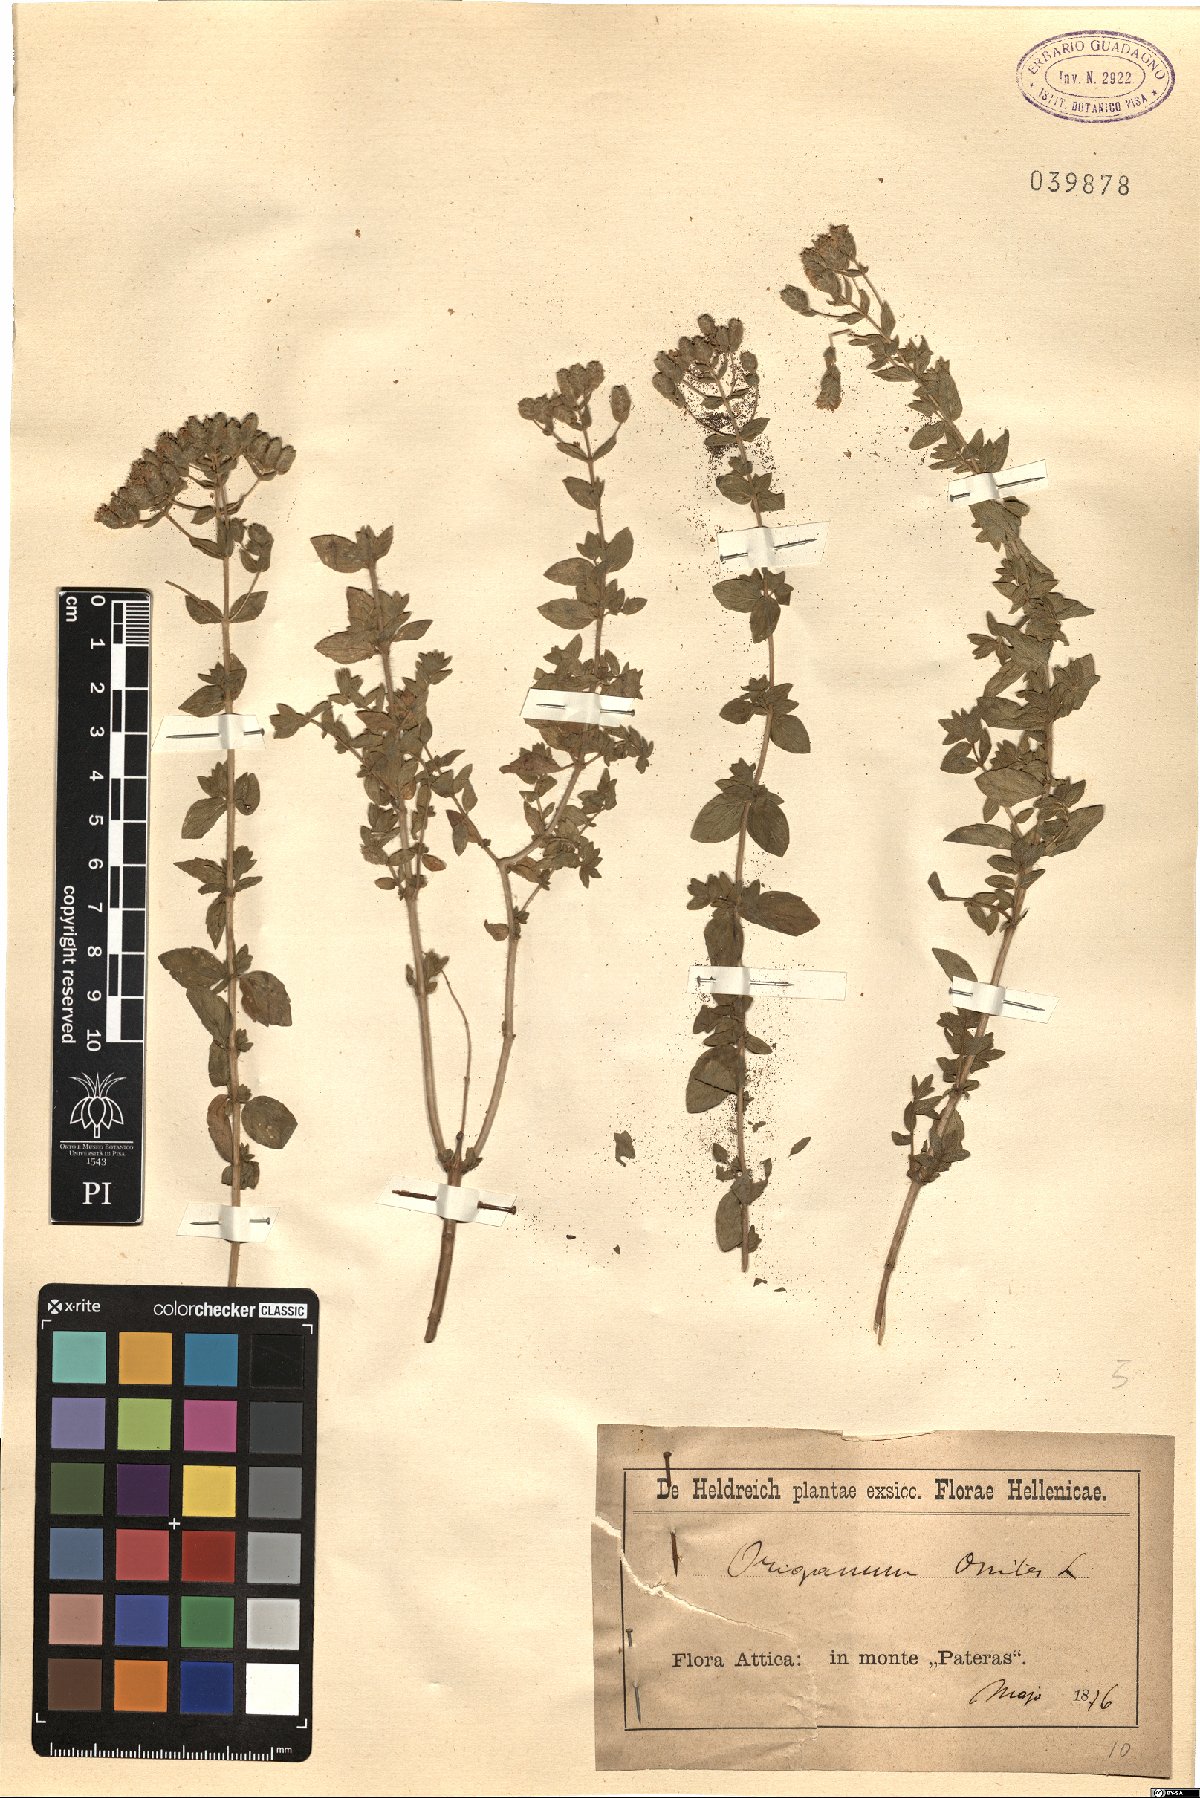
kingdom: Plantae
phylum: Tracheophyta
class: Magnoliopsida
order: Lamiales
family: Lamiaceae
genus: Origanum
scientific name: Origanum onites
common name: Turkish oregano
